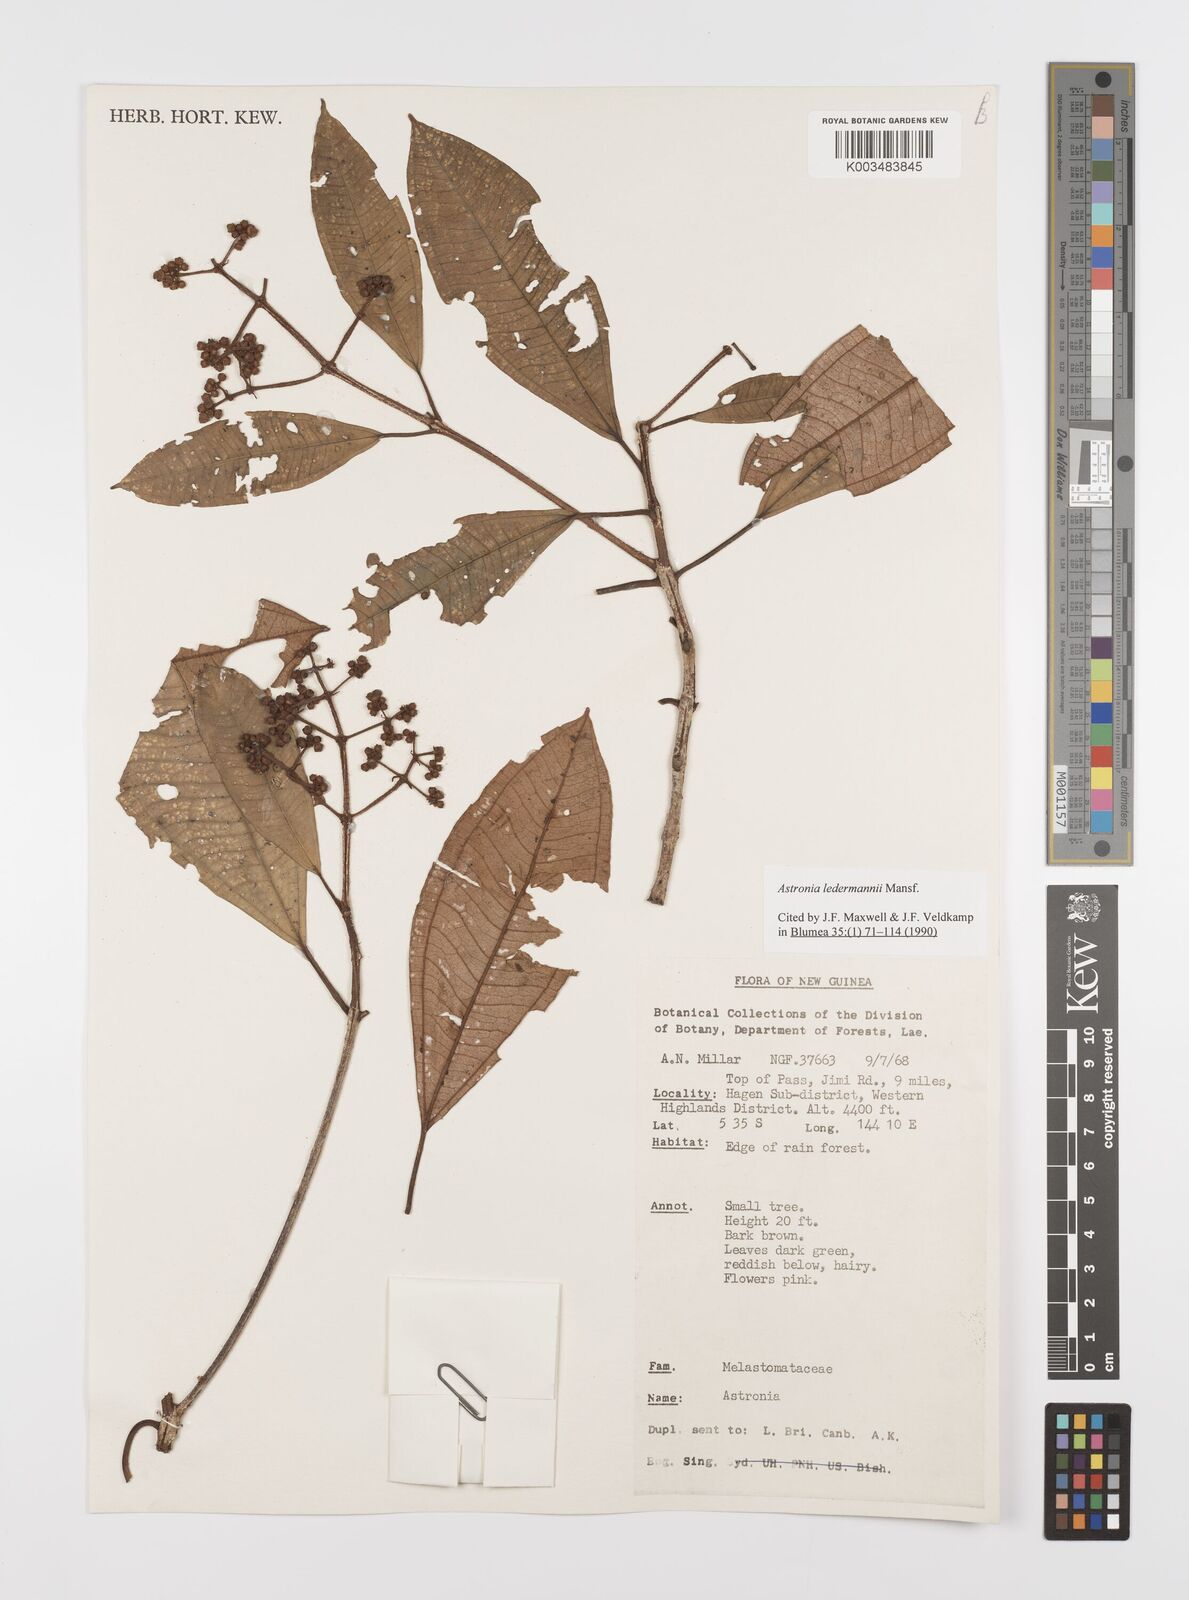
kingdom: Plantae
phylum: Tracheophyta
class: Magnoliopsida
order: Myrtales
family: Melastomataceae
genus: Astronia
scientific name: Astronia ledermannii
